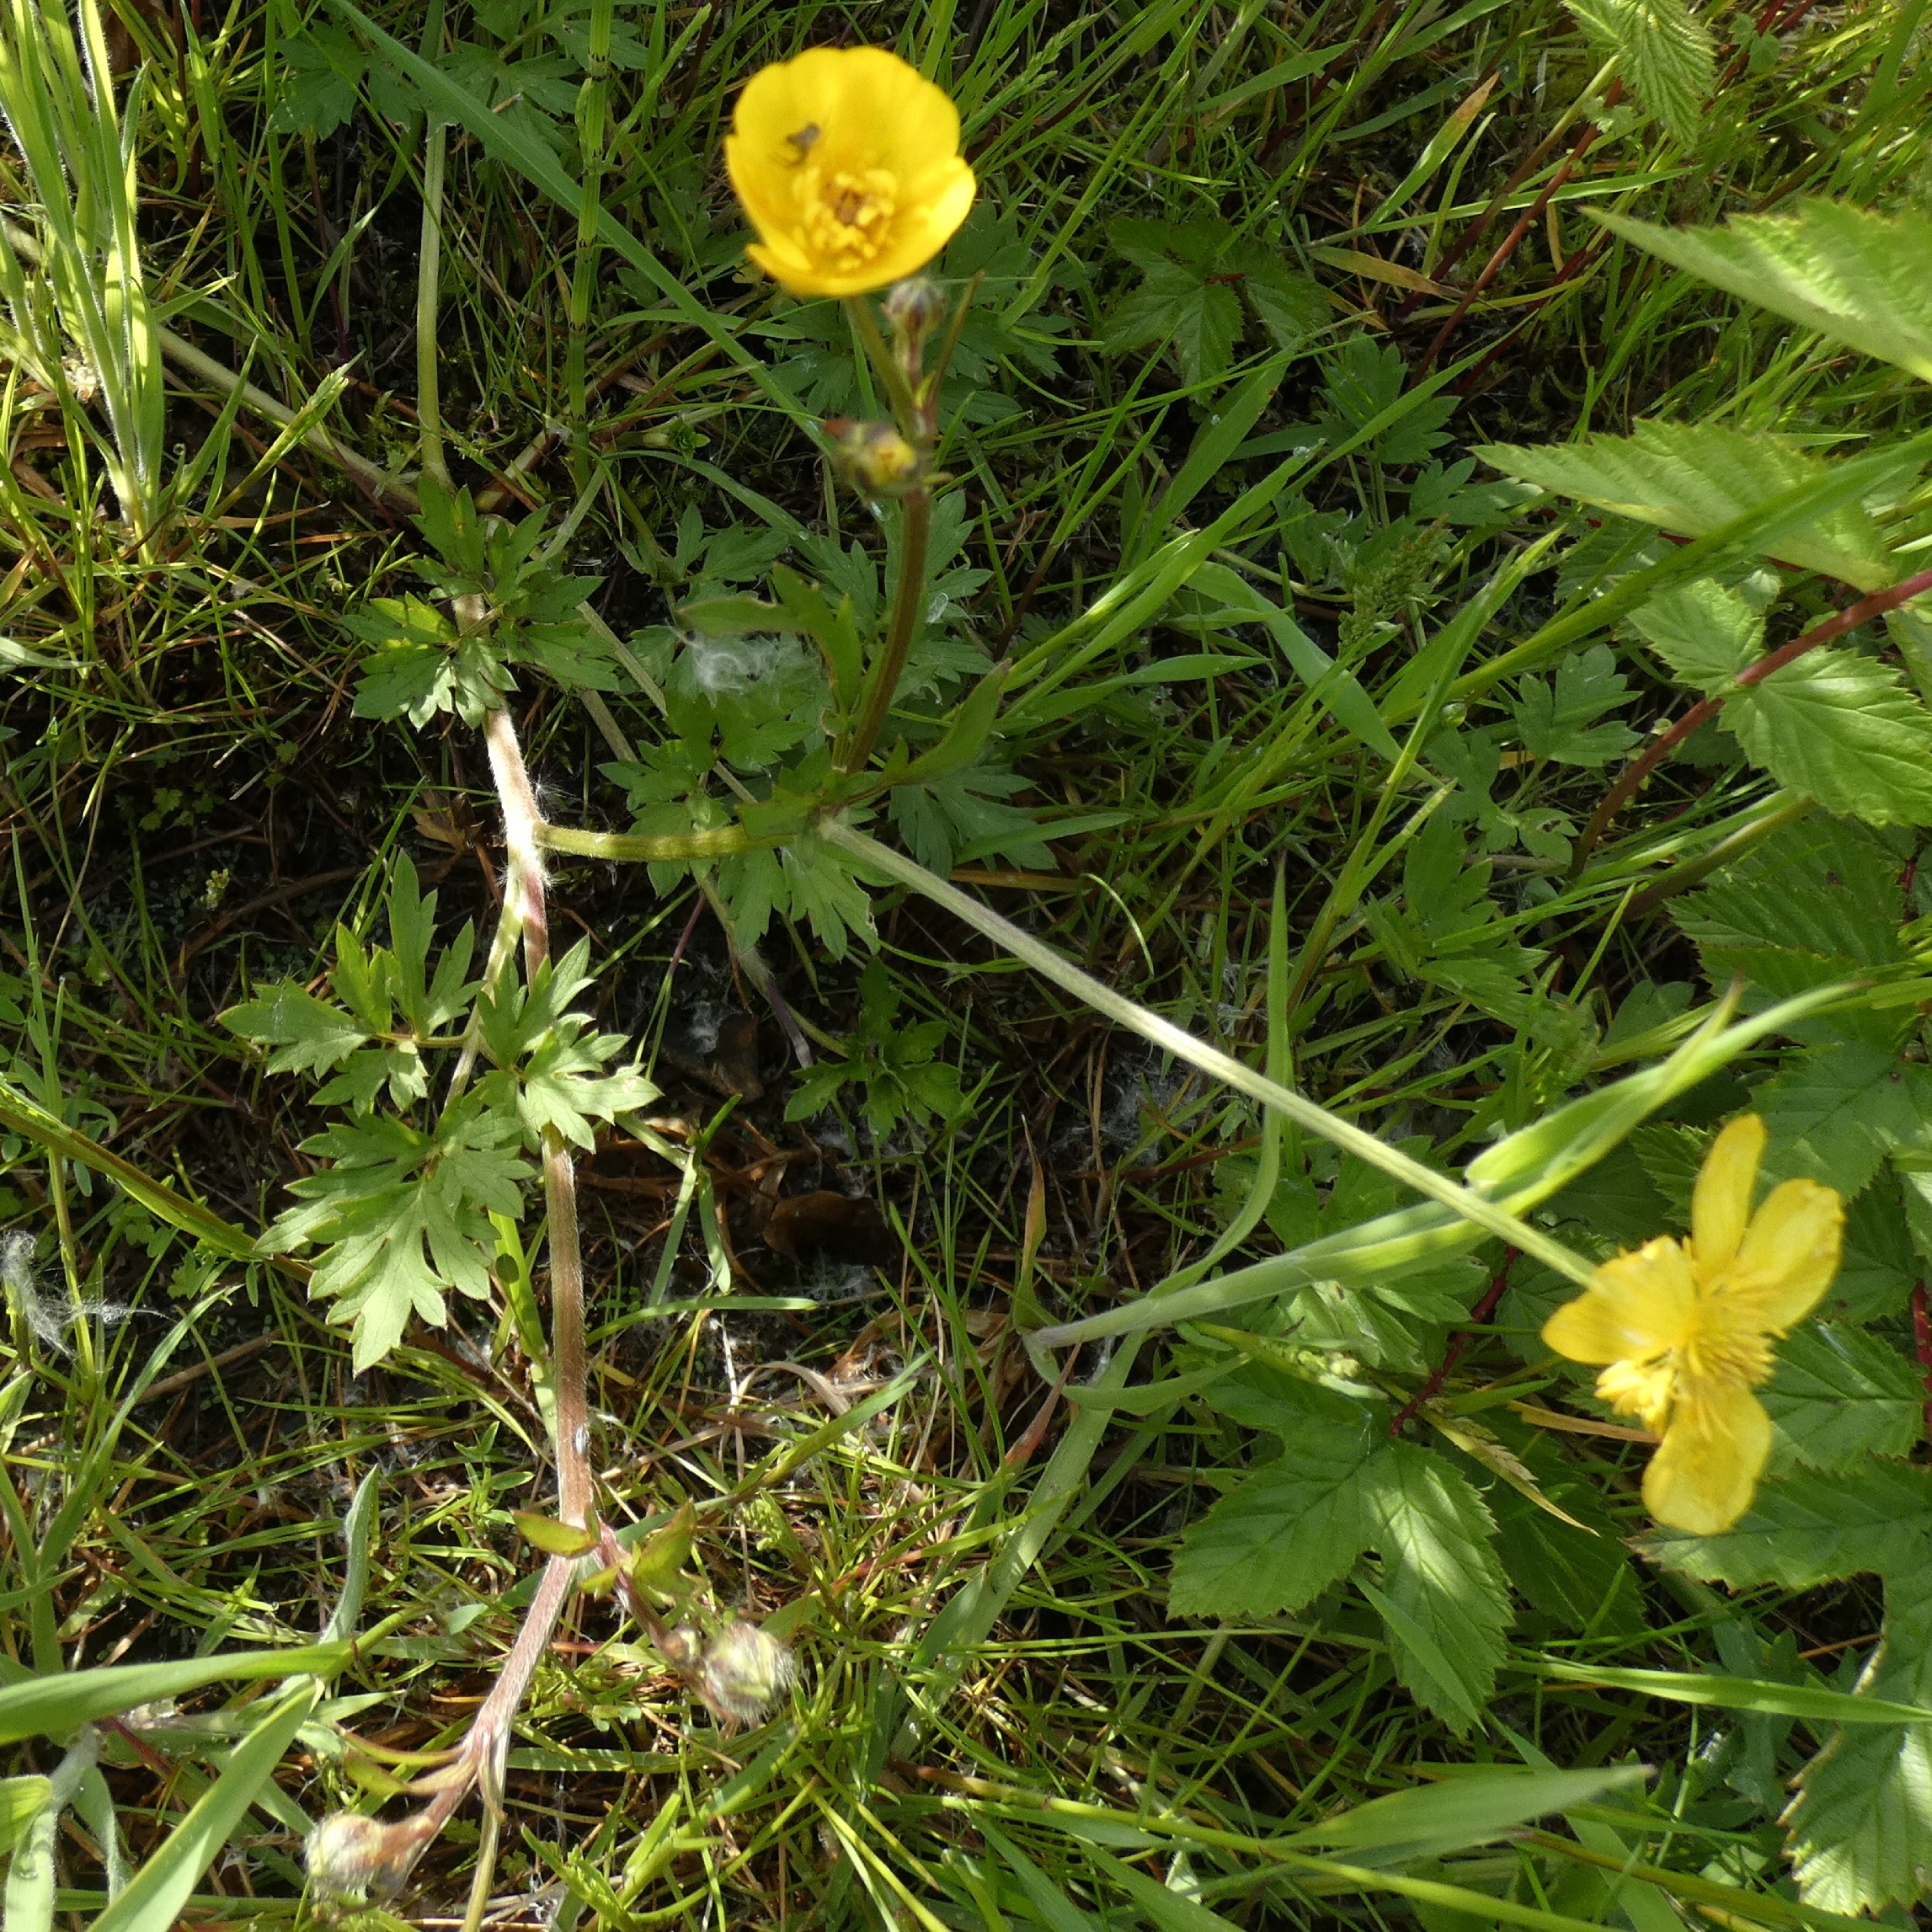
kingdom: Plantae
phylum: Tracheophyta
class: Magnoliopsida
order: Ranunculales
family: Ranunculaceae
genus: Ranunculus
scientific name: Ranunculus repens
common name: Lav ranunkel
